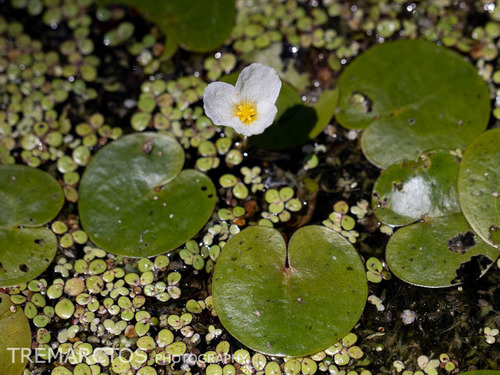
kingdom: Plantae
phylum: Tracheophyta
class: Liliopsida
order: Alismatales
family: Hydrocharitaceae
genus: Hydrocharis
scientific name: Hydrocharis morsus-ranae
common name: European frog-bit
